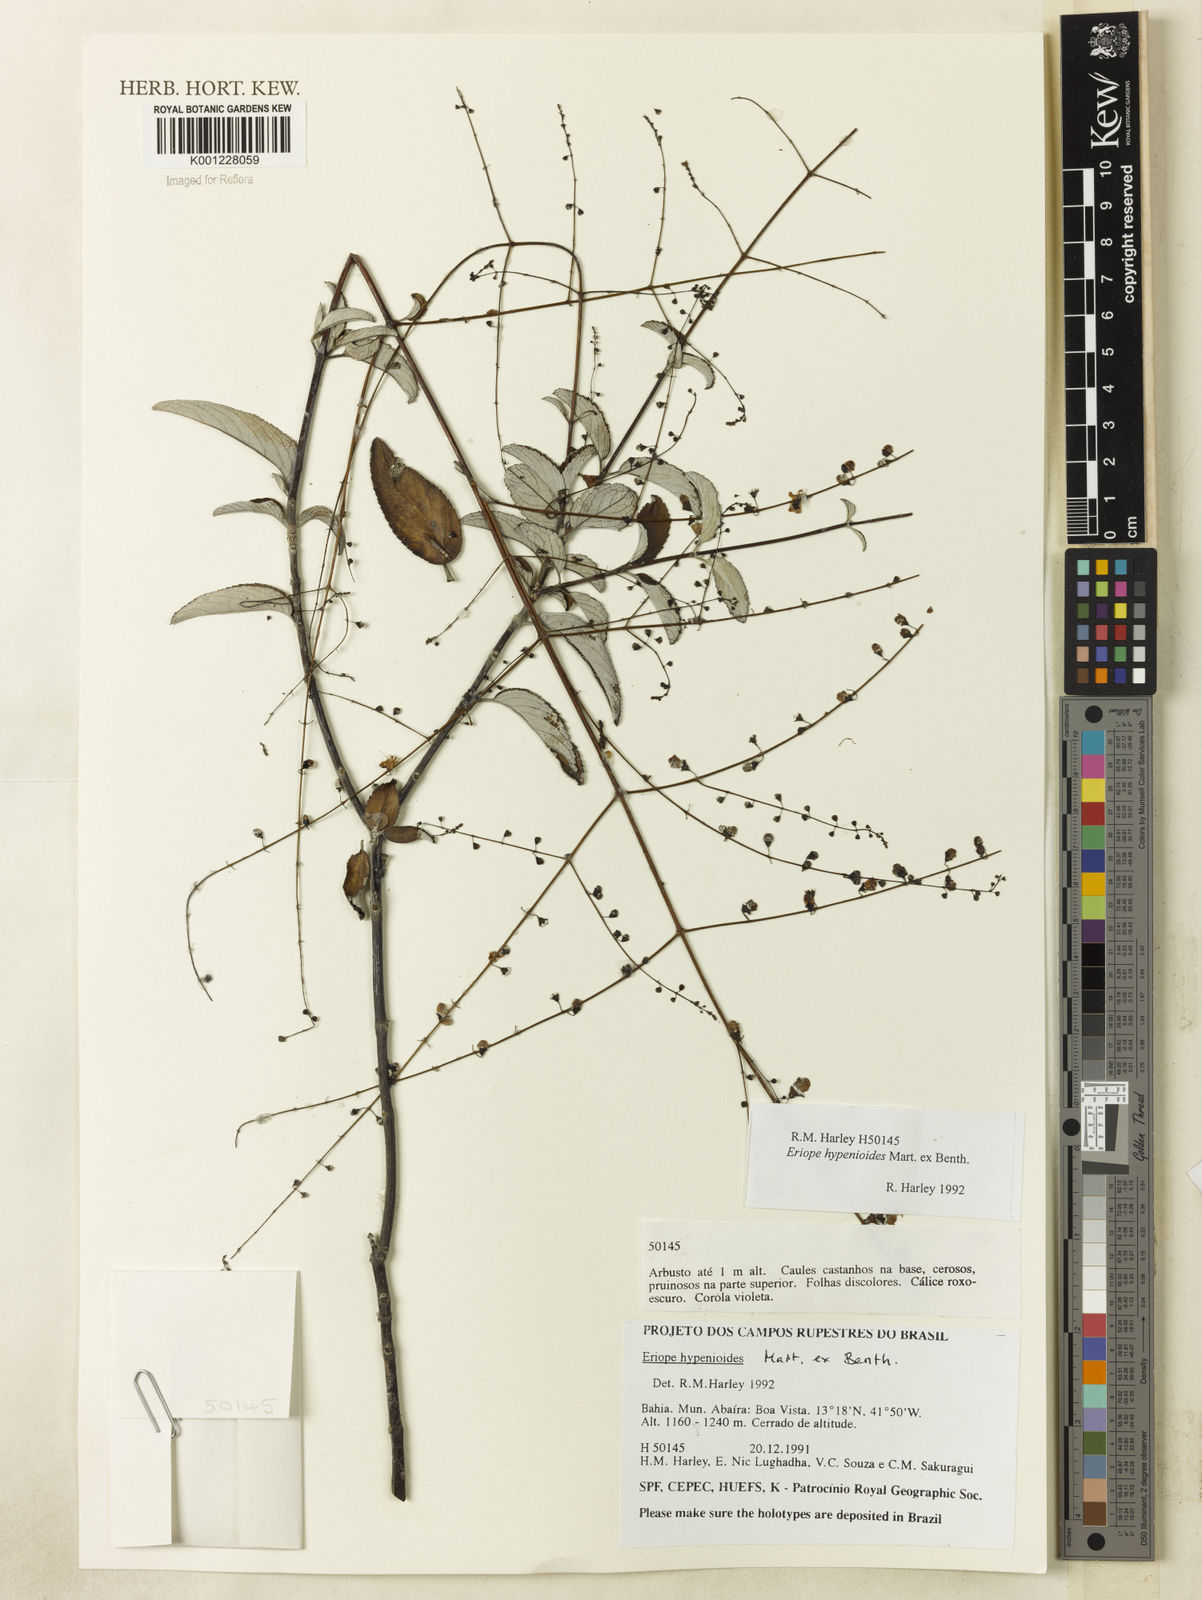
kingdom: Plantae
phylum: Tracheophyta
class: Magnoliopsida
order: Lamiales
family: Lamiaceae
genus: Eriope
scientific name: Eriope hypenioides
